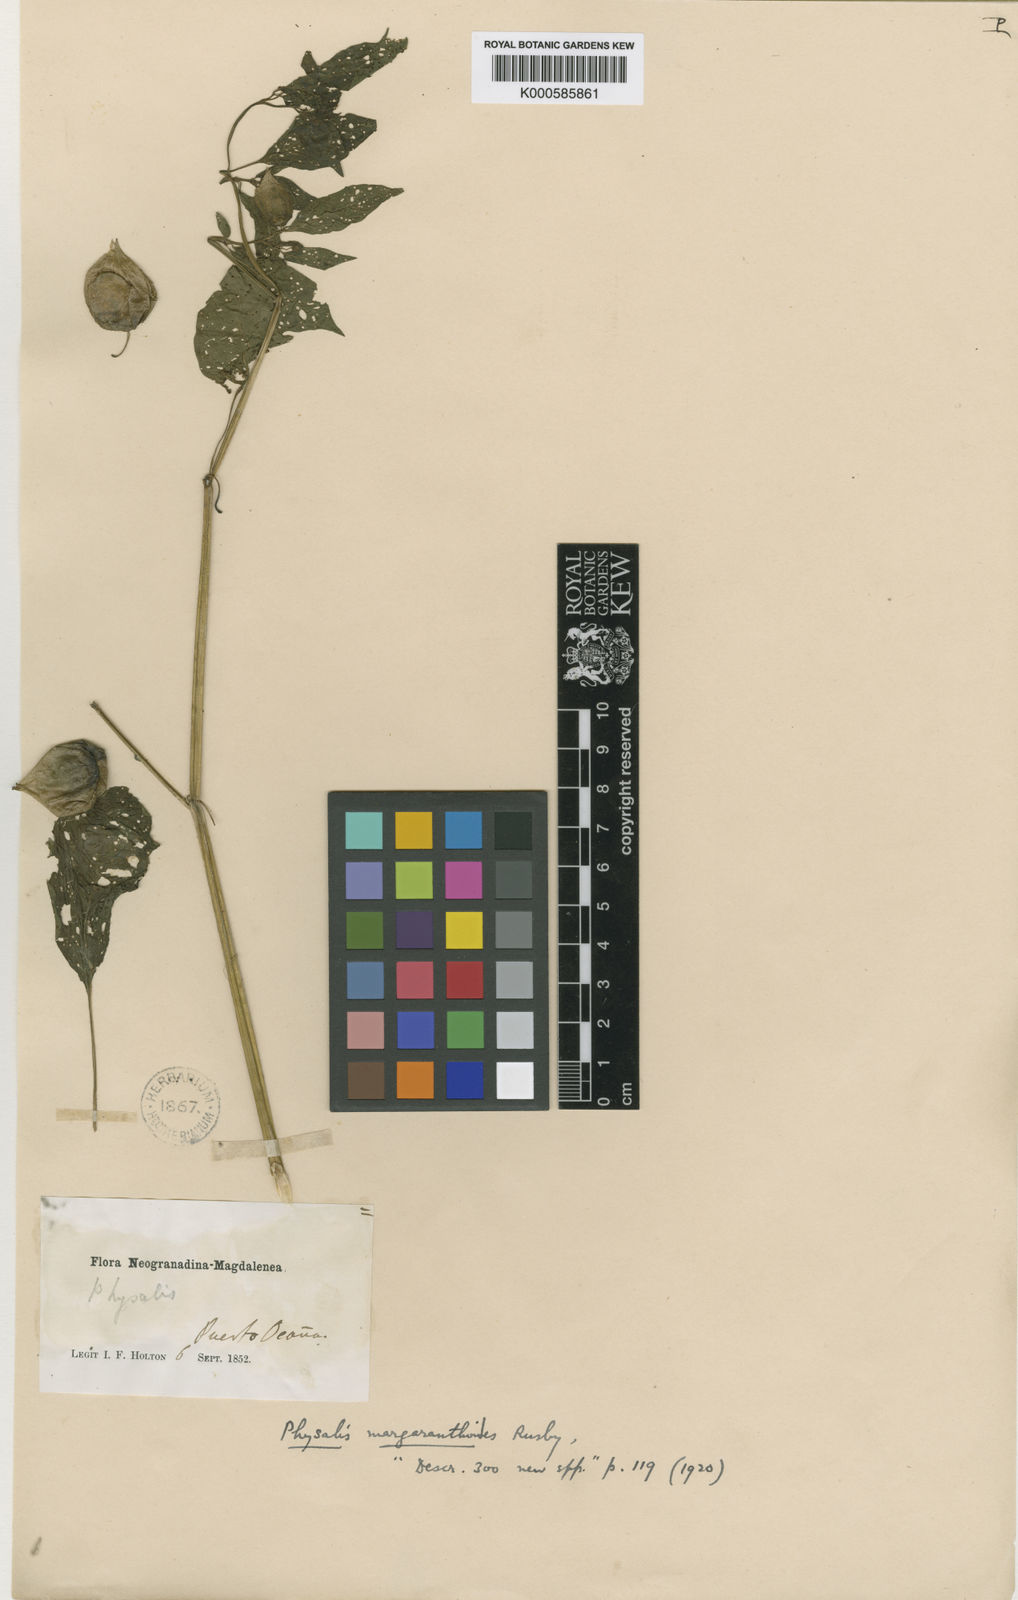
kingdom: Plantae
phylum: Tracheophyta
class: Magnoliopsida
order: Solanales
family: Solanaceae
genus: Physalis
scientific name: Physalis angulata
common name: Angular winter-cherry
